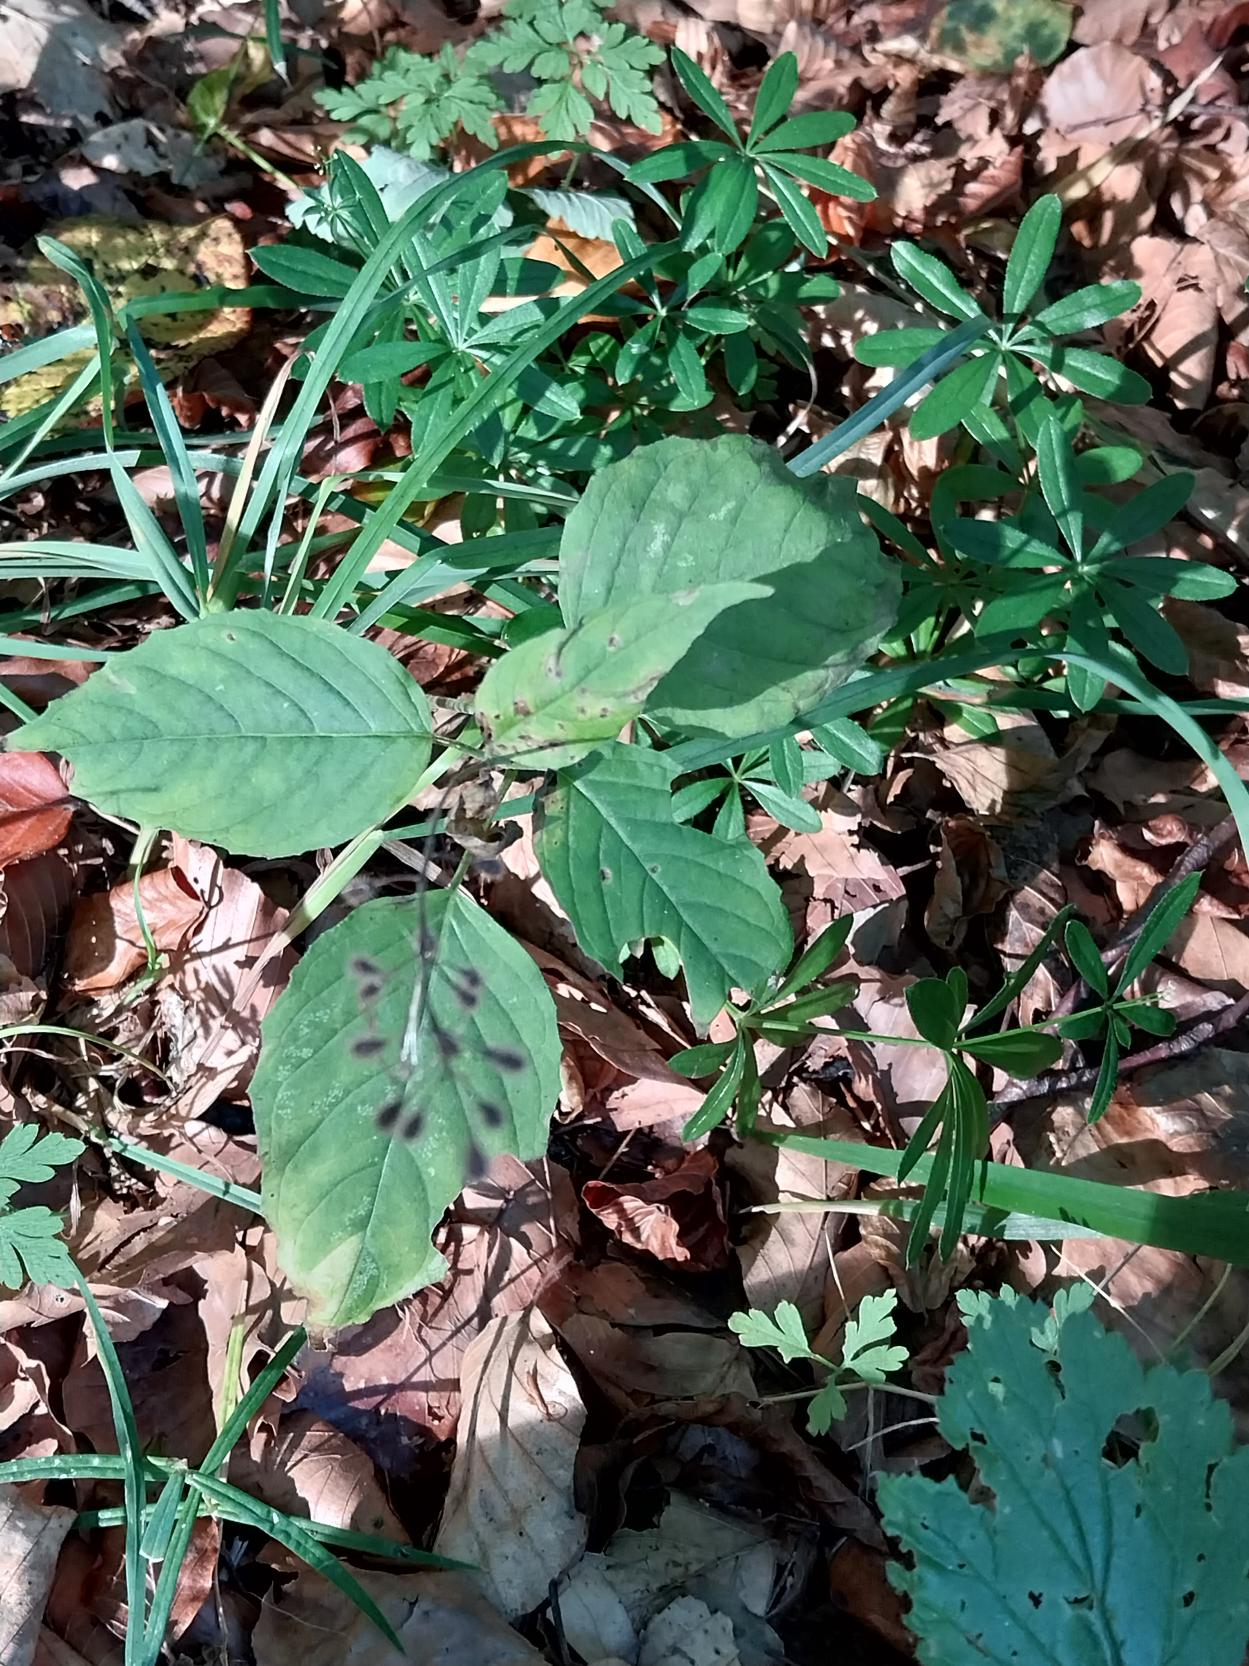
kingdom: Plantae
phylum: Tracheophyta
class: Magnoliopsida
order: Myrtales
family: Onagraceae
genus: Circaea
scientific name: Circaea lutetiana
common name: Dunet steffensurt
